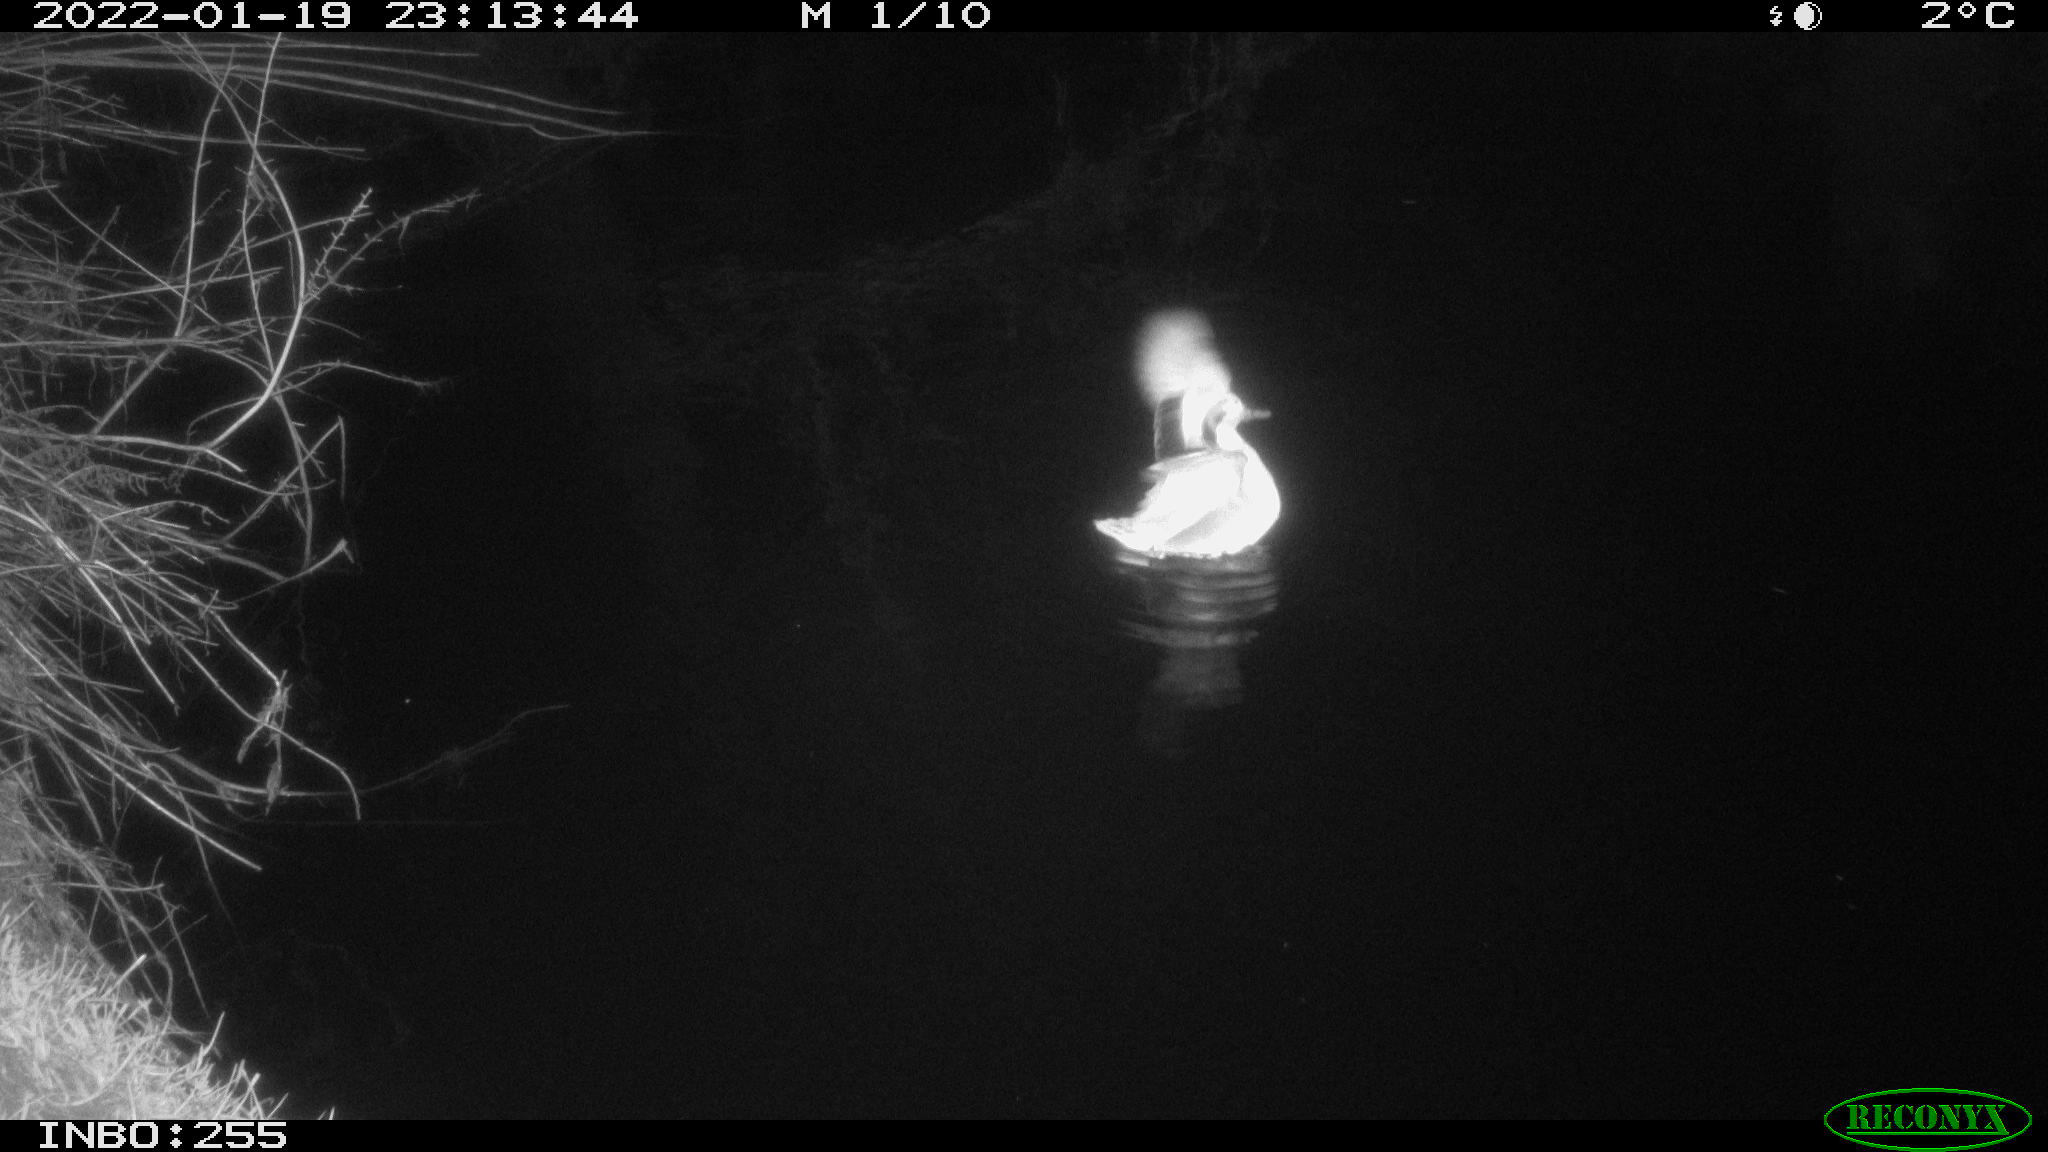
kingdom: Animalia
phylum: Chordata
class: Aves
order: Anseriformes
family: Anatidae
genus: Anas
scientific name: Anas
